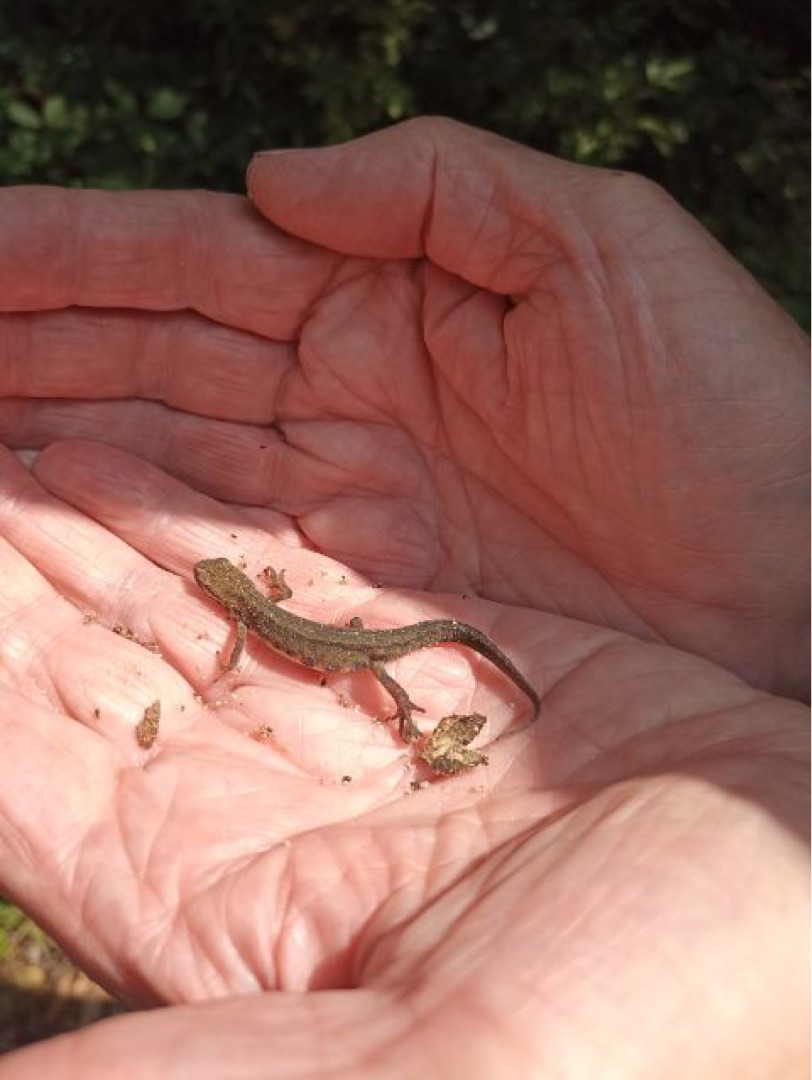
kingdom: Animalia
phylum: Chordata
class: Amphibia
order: Caudata
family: Salamandridae
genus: Lissotriton
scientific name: Lissotriton vulgaris
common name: Lille vandsalamander
